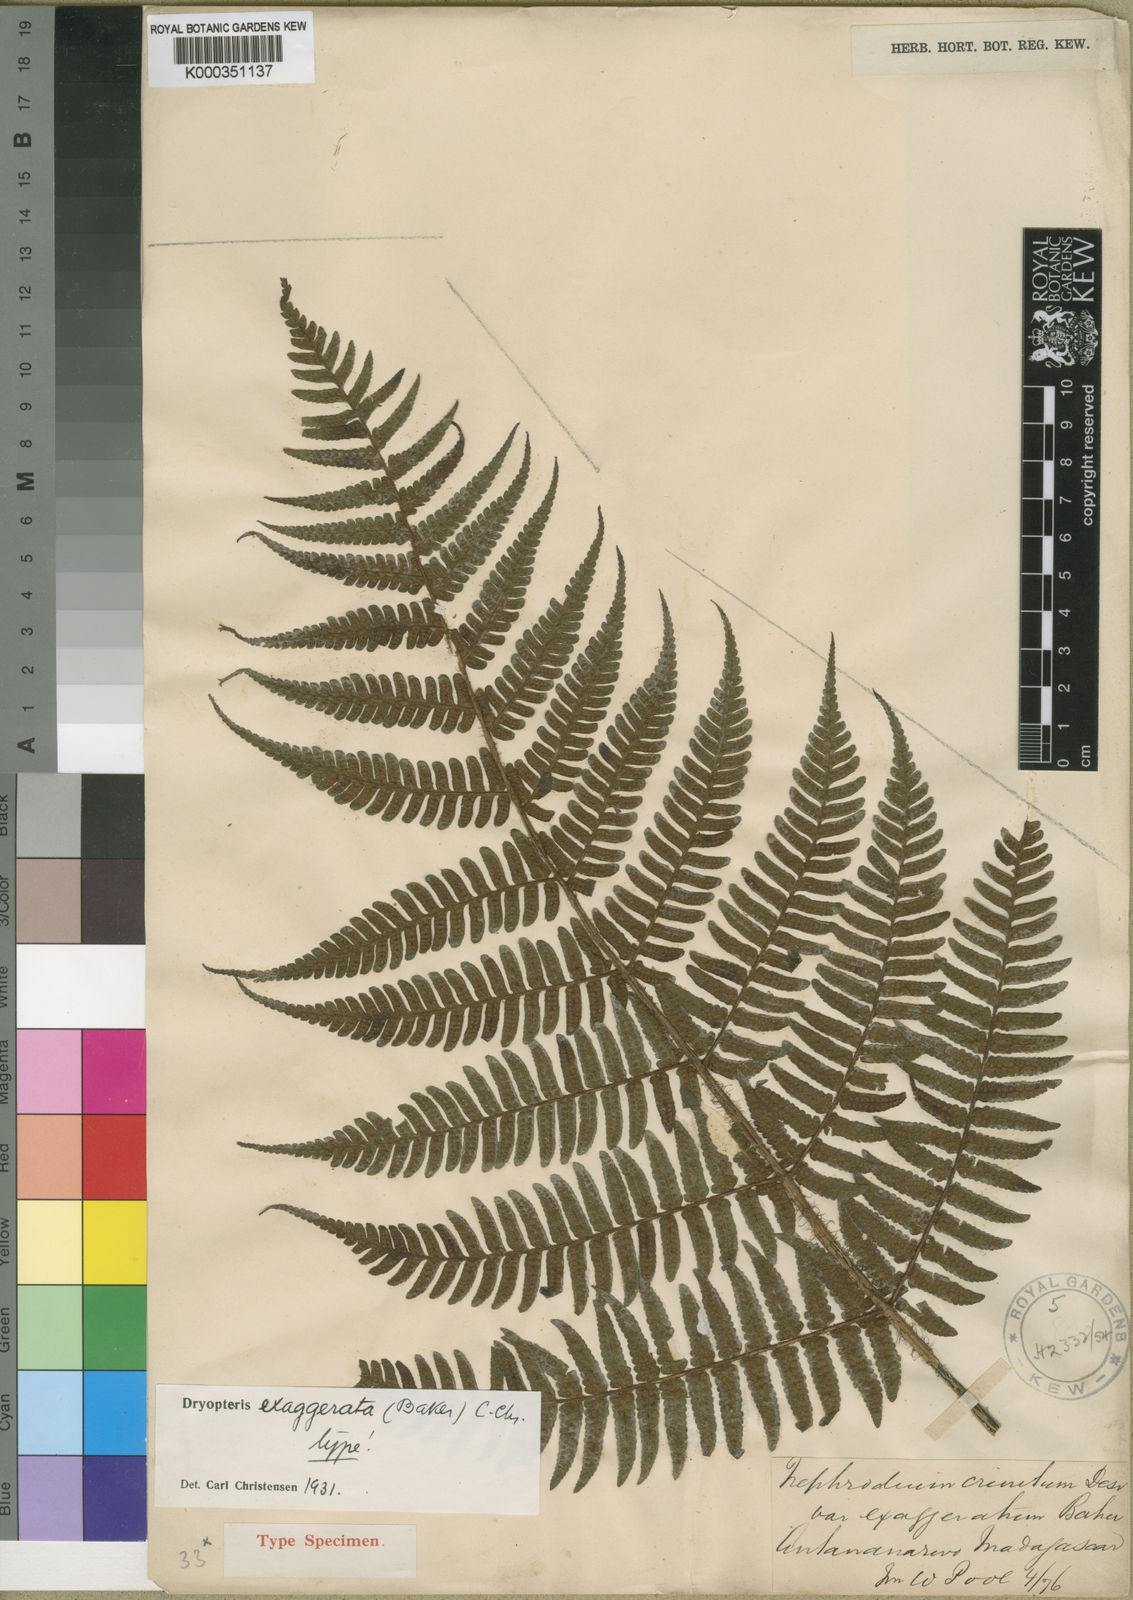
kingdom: Plantae
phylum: Tracheophyta
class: Polypodiopsida
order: Polypodiales
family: Dryopteridaceae
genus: Ctenitis
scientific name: Ctenitis exaggerata
